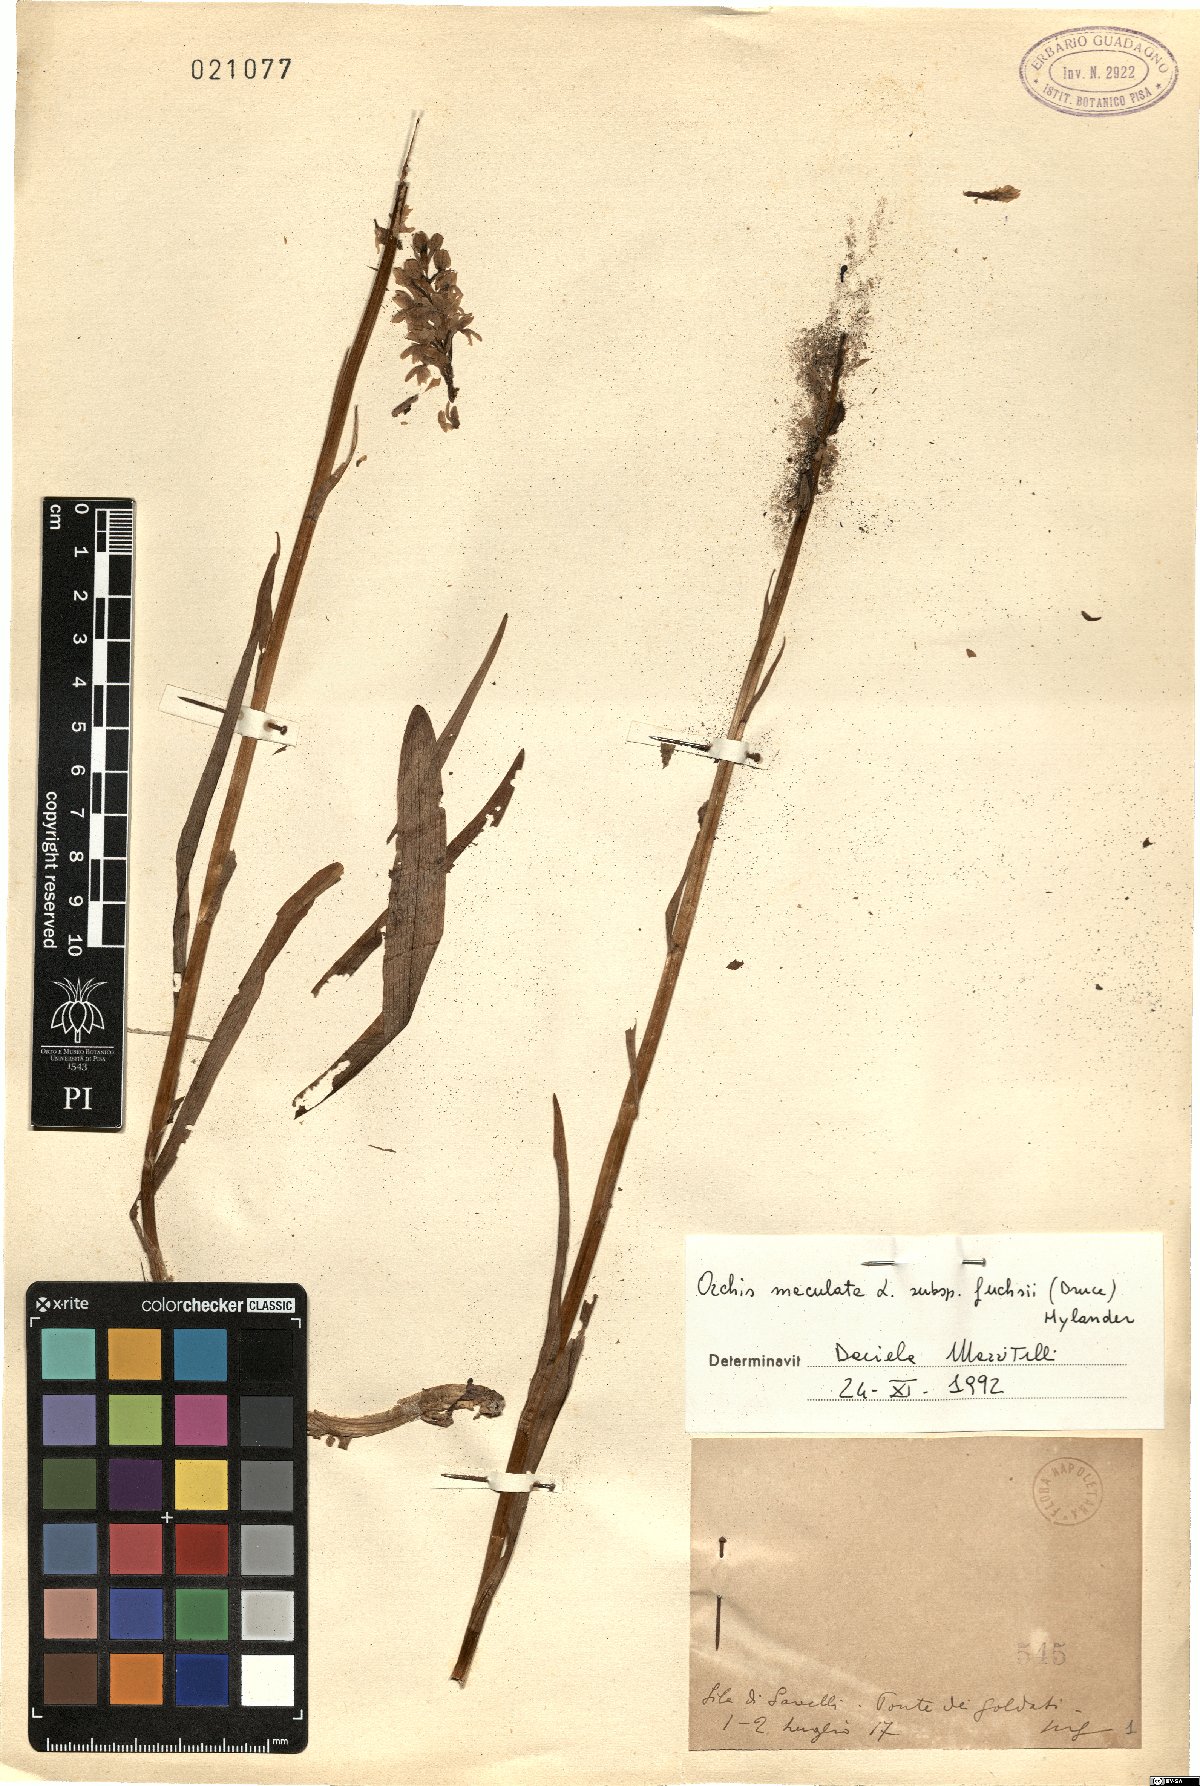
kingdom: Plantae
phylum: Tracheophyta
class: Liliopsida
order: Asparagales
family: Orchidaceae
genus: Dactylorhiza
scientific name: Dactylorhiza maculata
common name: Heath spotted-orchid
